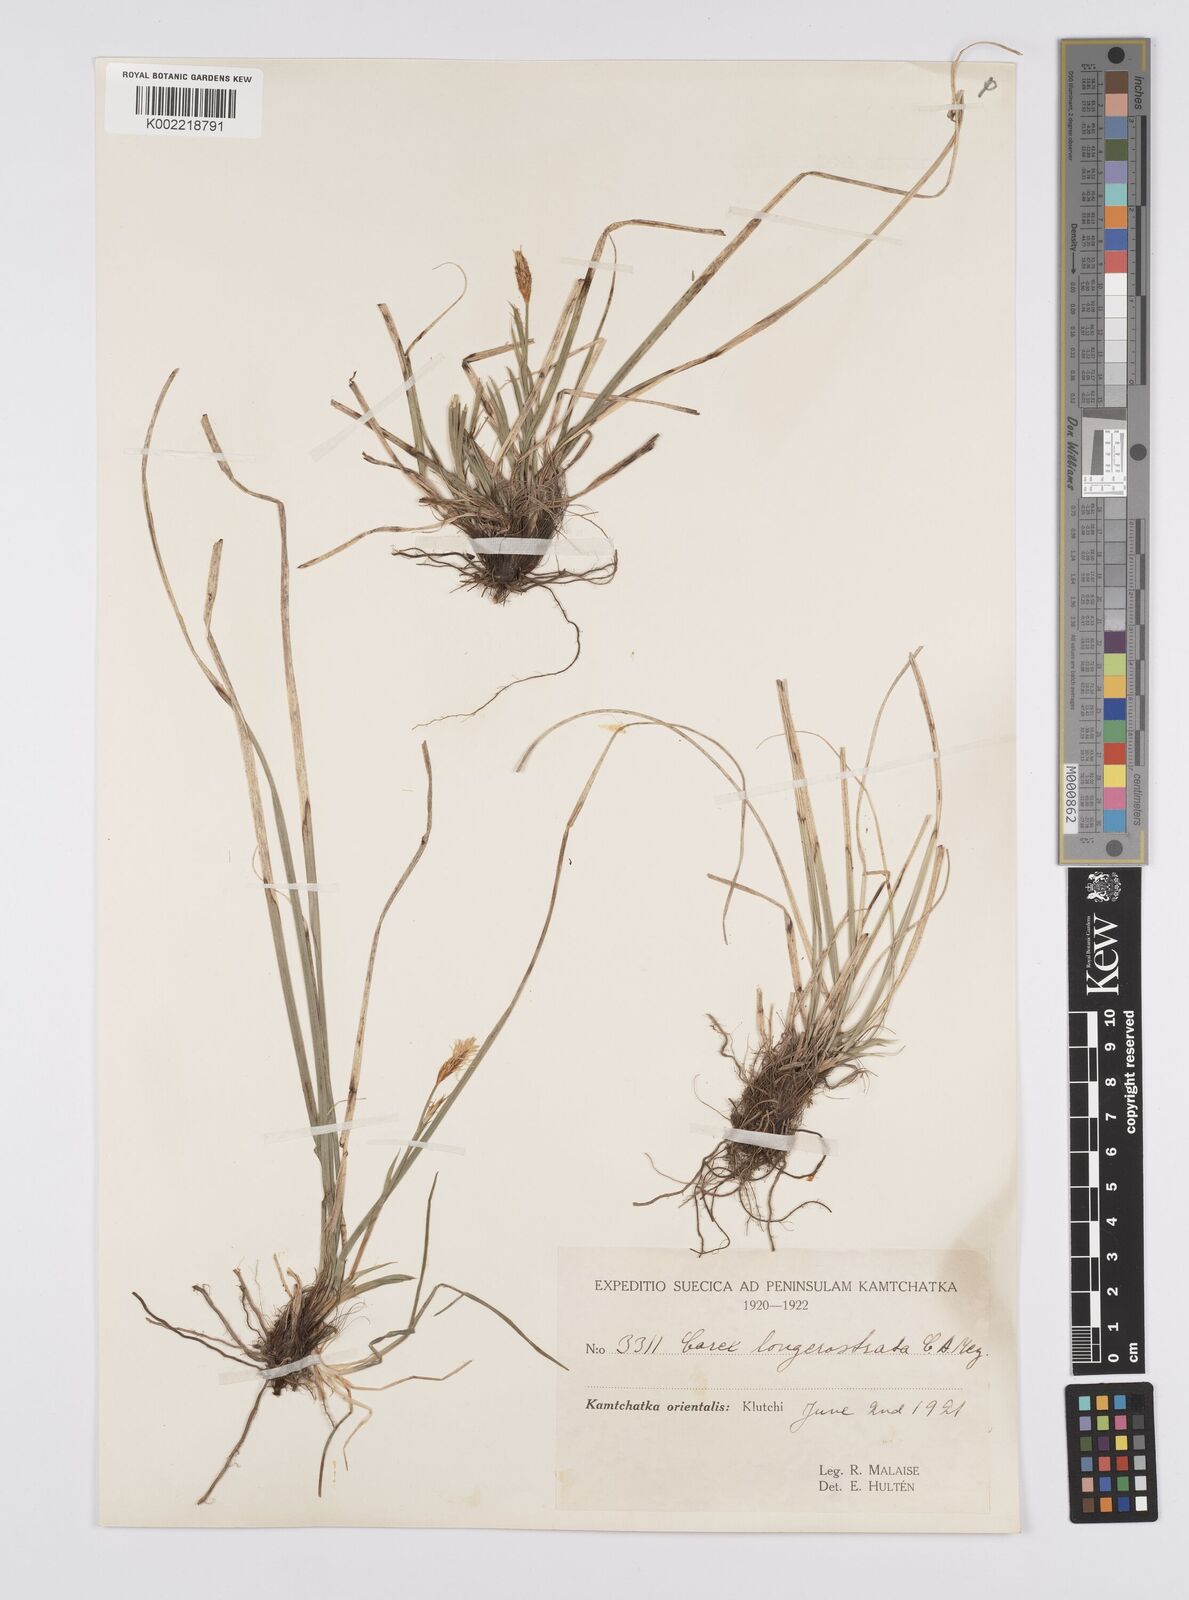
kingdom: Plantae
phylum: Tracheophyta
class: Liliopsida
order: Poales
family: Cyperaceae
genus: Carex
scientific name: Carex longerostrata
